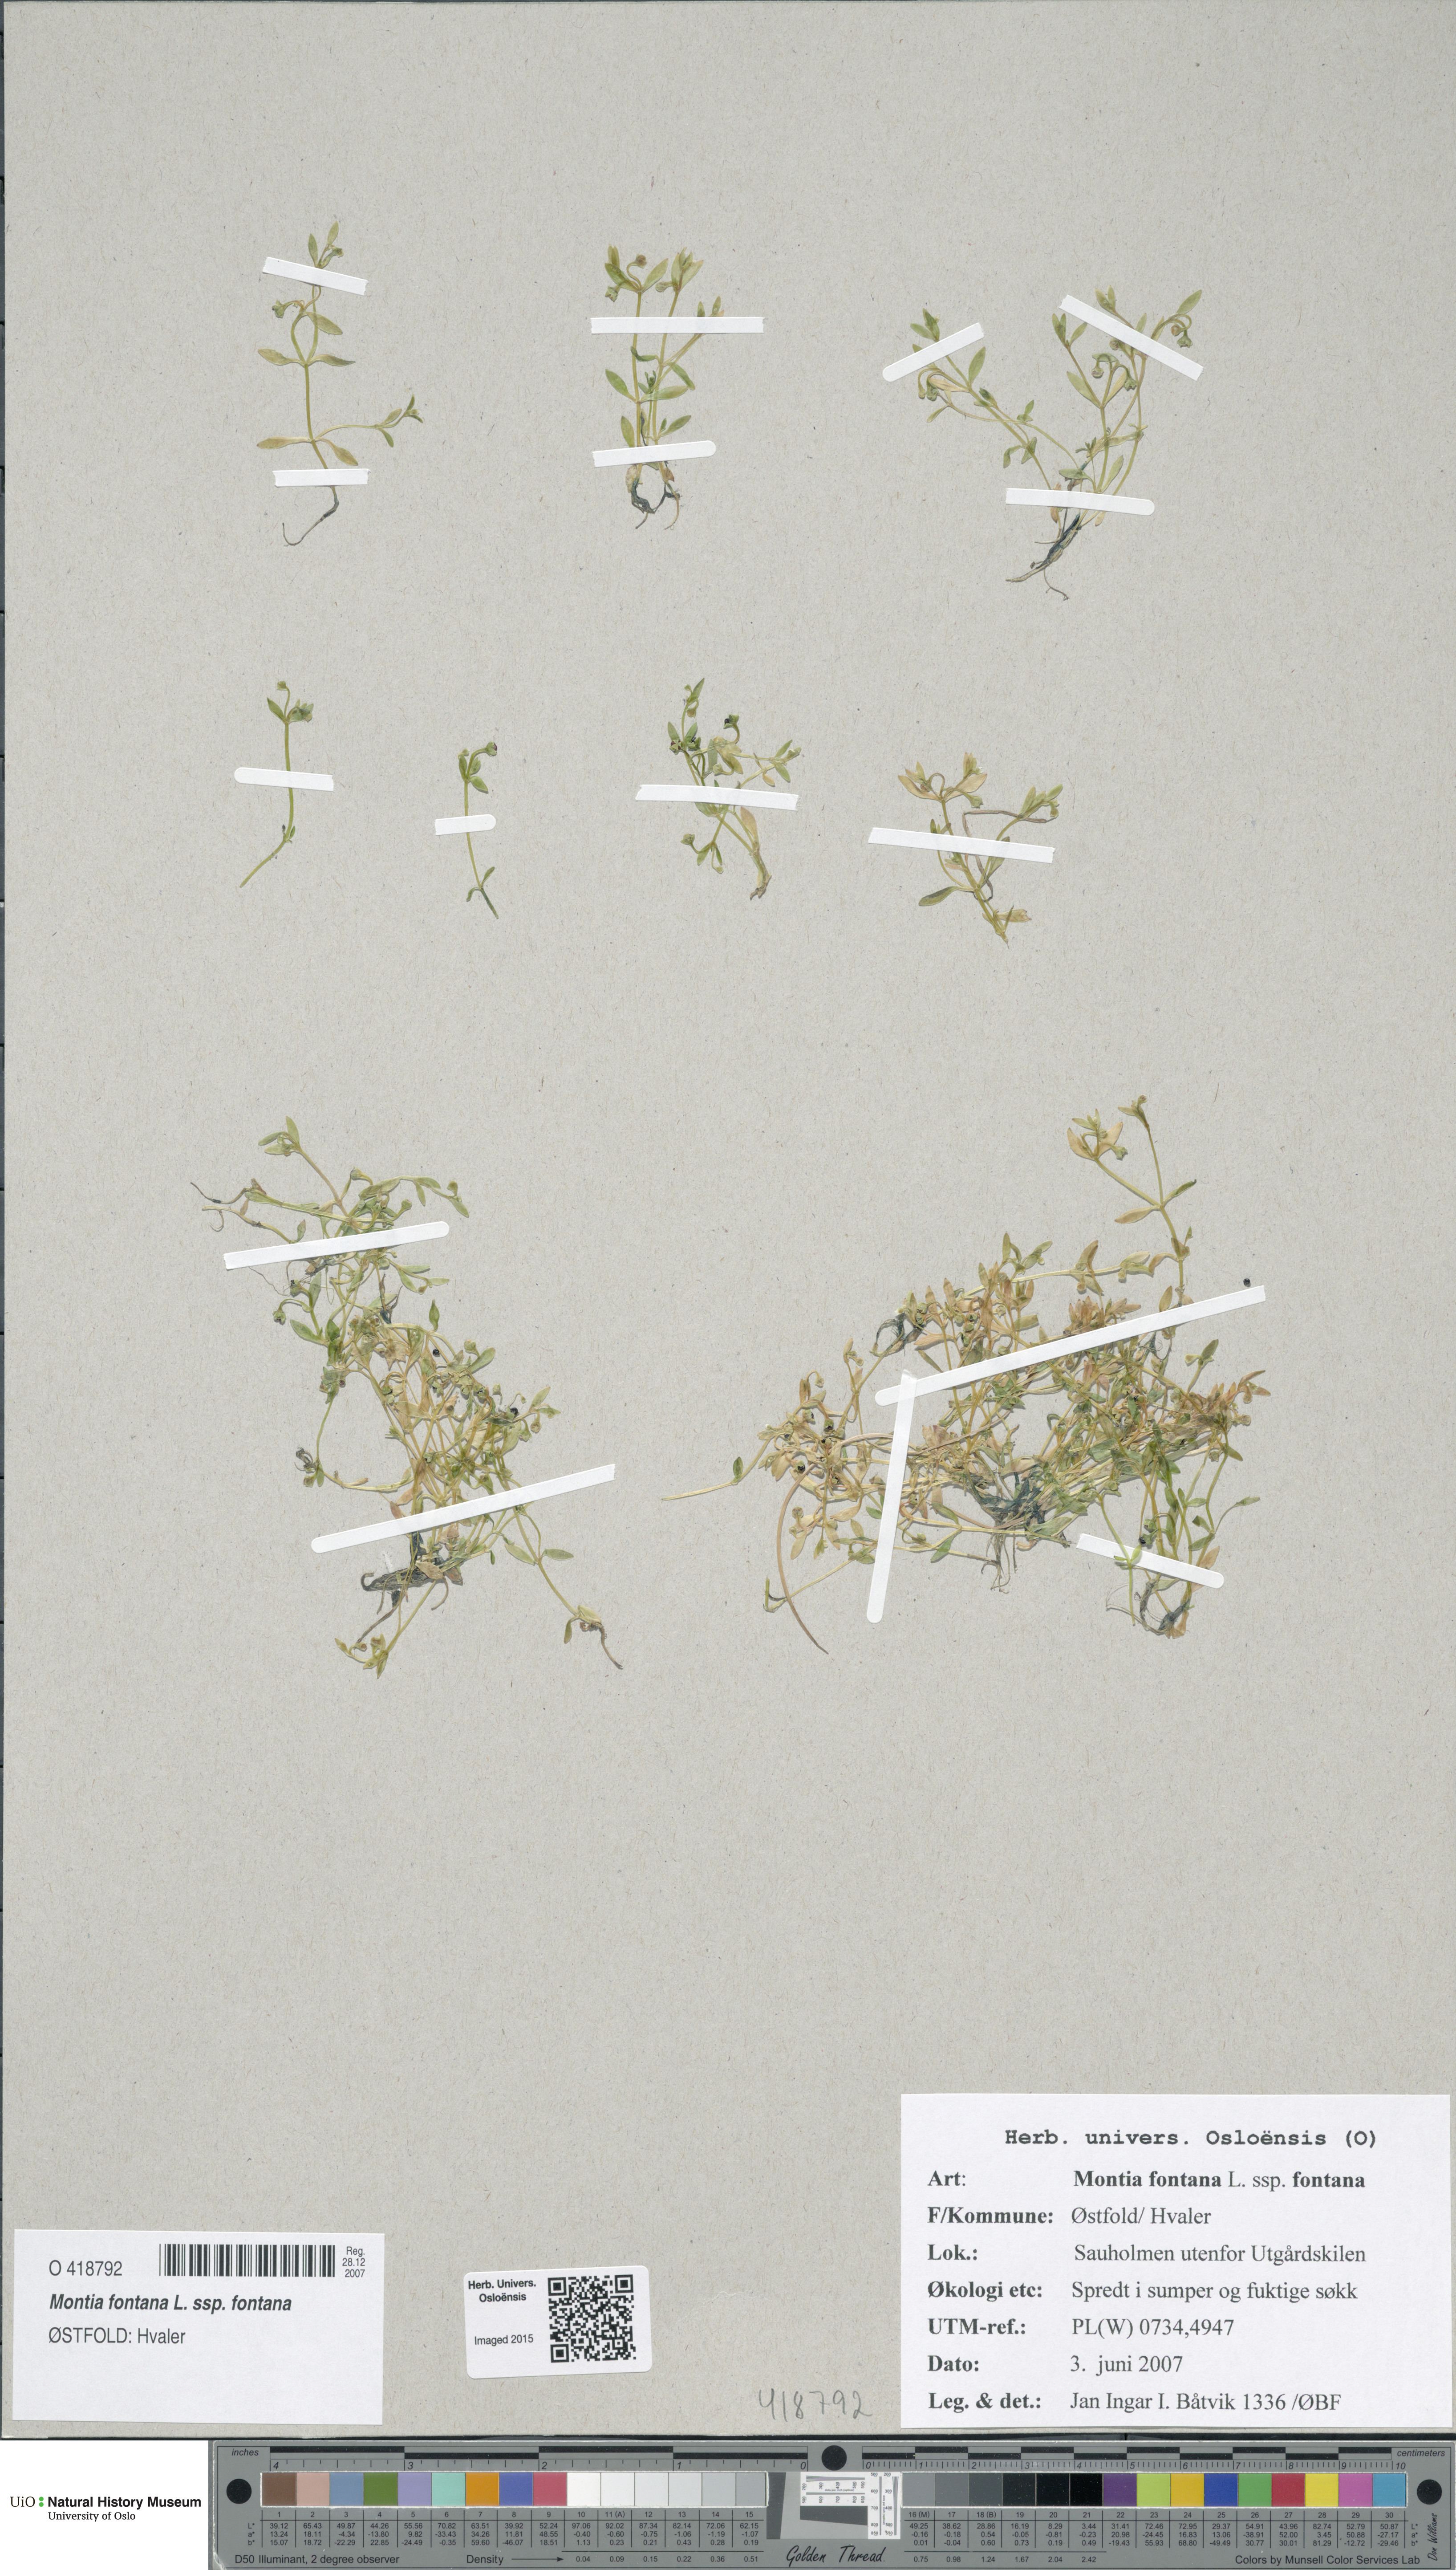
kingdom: Plantae
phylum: Tracheophyta
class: Magnoliopsida
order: Caryophyllales
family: Montiaceae
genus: Montia
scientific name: Montia fontana
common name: Blinks
